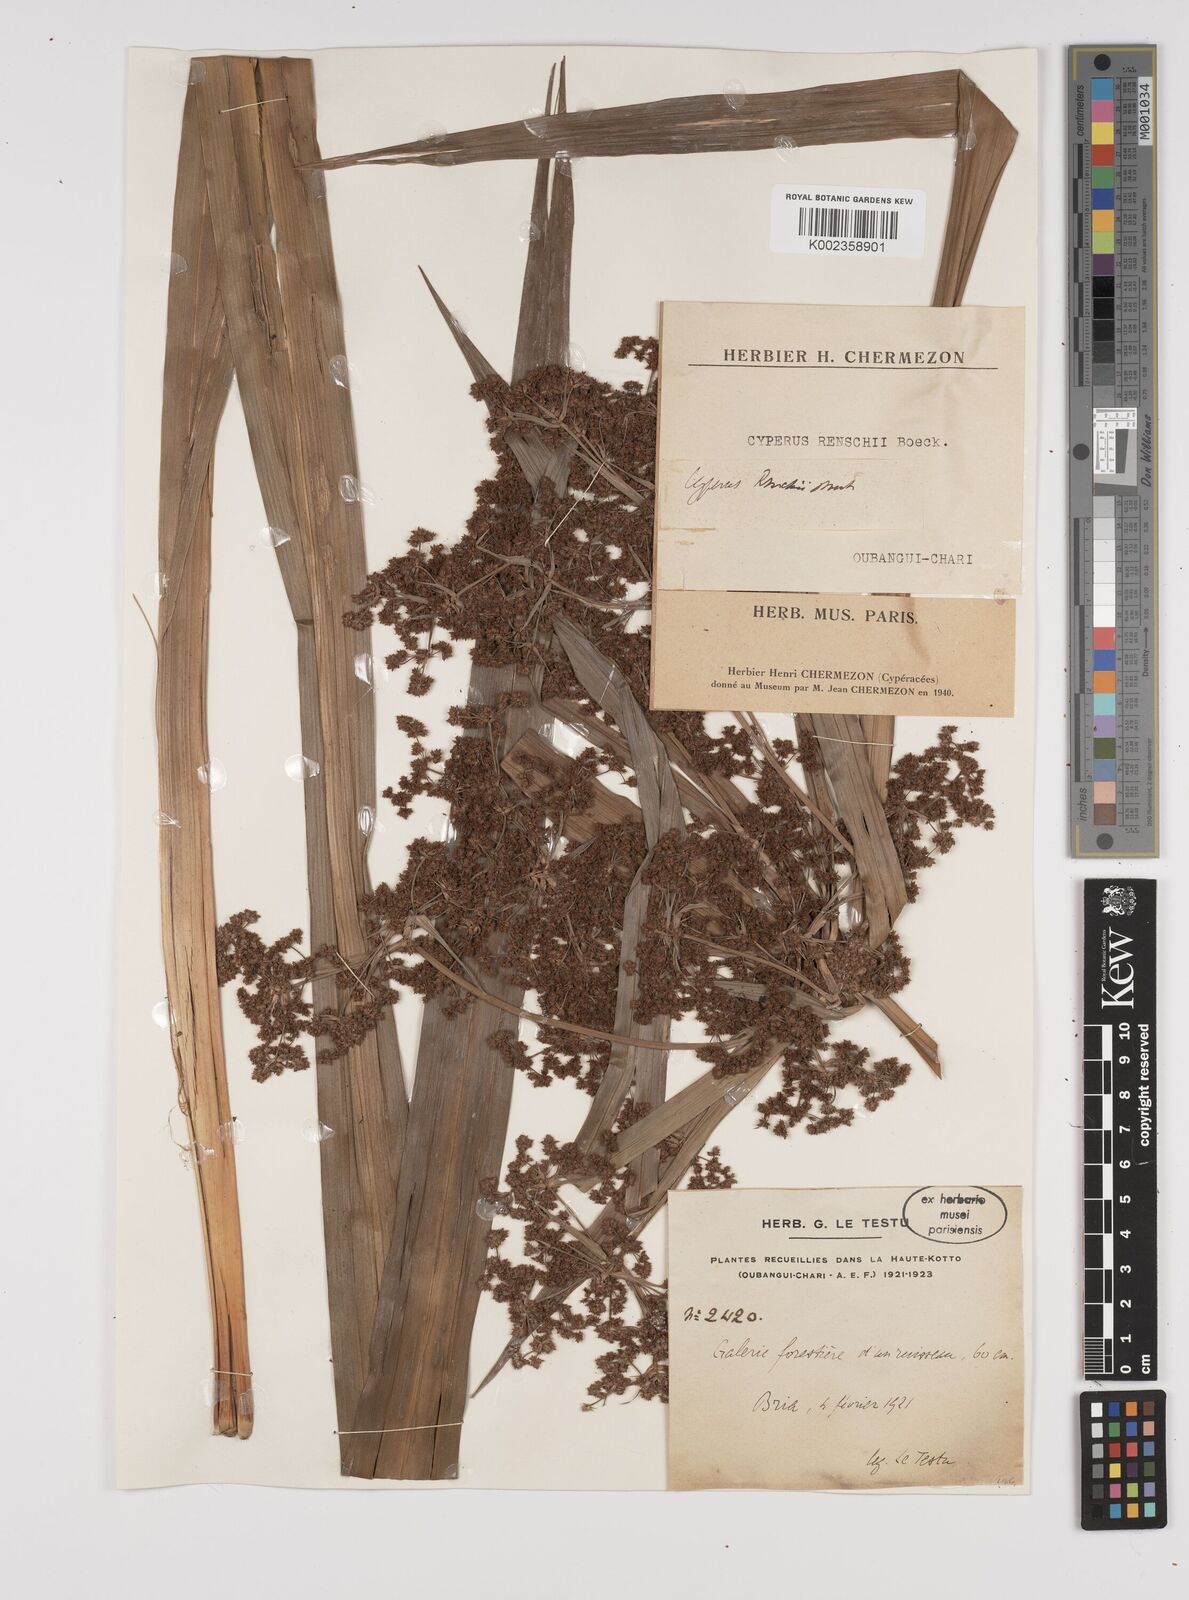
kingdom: Plantae
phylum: Tracheophyta
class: Liliopsida
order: Poales
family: Cyperaceae
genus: Cyperus
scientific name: Cyperus renschii
